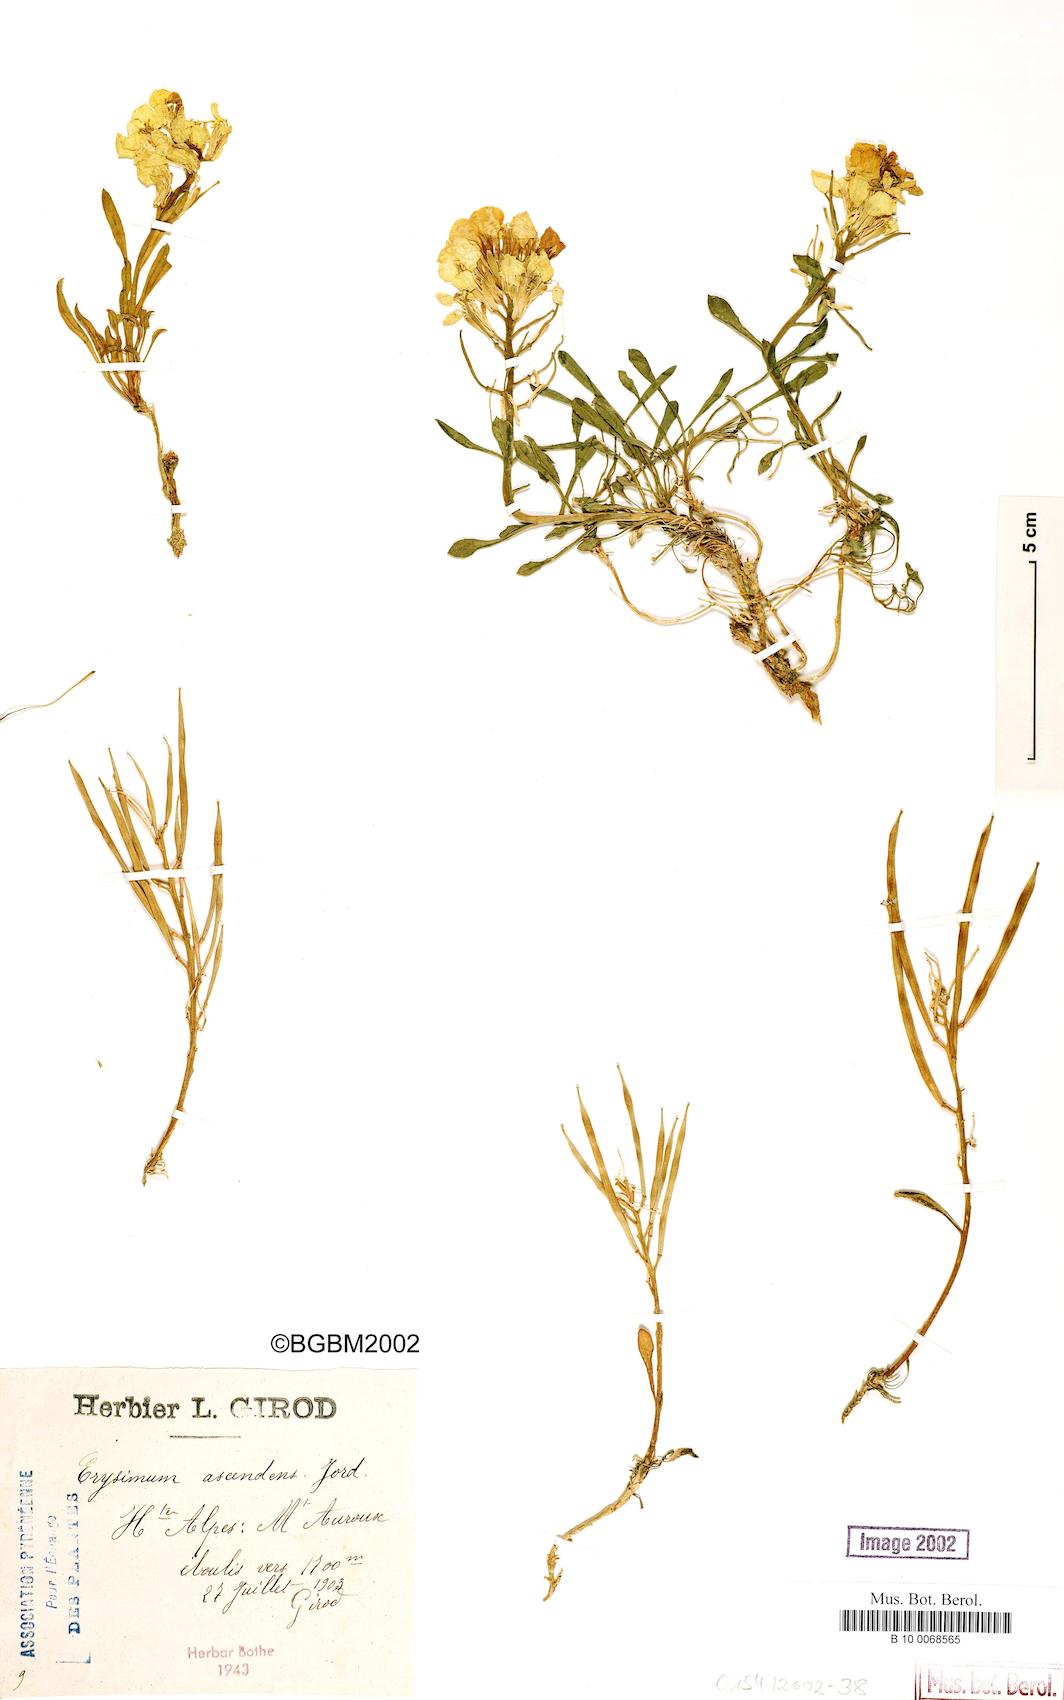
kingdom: Plantae
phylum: Tracheophyta
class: Magnoliopsida
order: Brassicales
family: Brassicaceae
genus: Erysimum
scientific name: Erysimum humile
